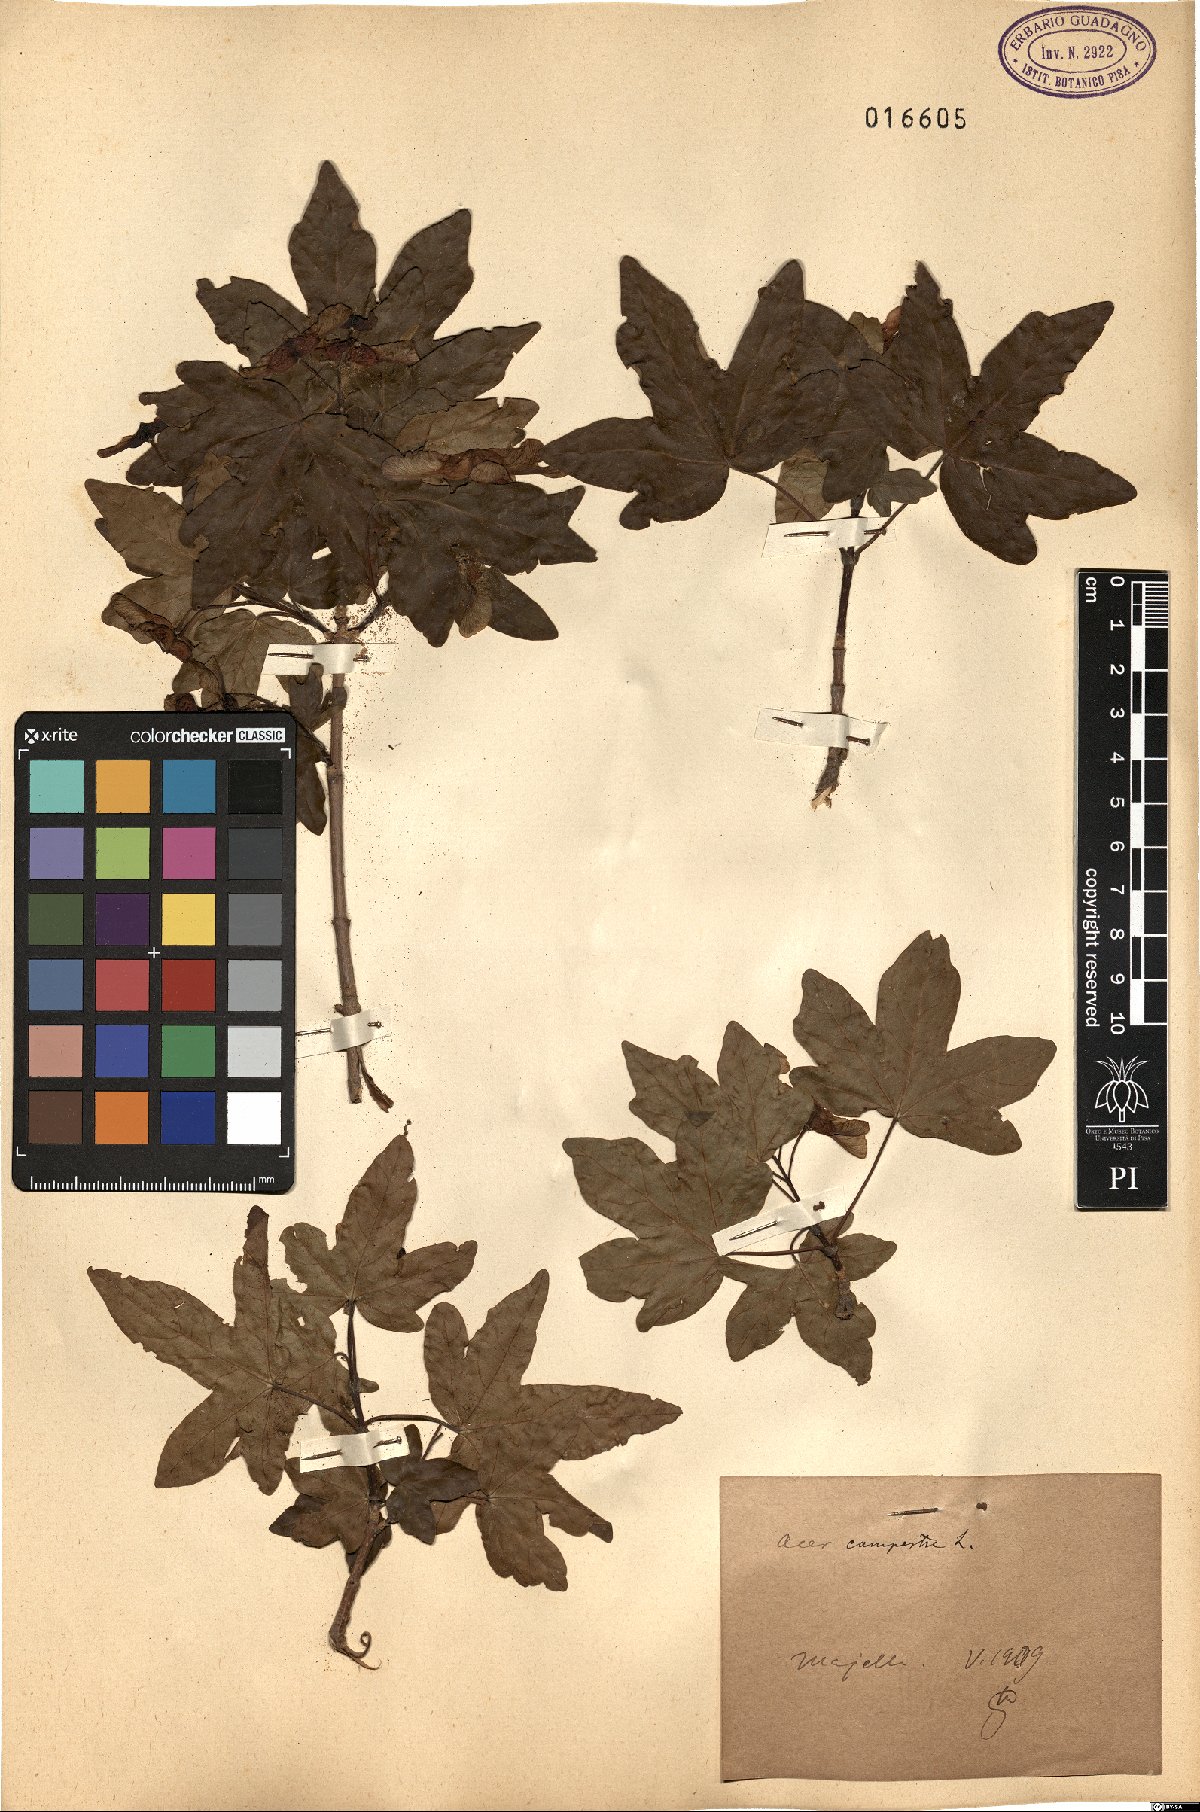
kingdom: Plantae
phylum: Tracheophyta
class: Magnoliopsida
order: Sapindales
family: Sapindaceae
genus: Acer
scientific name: Acer campestre
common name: Field maple
